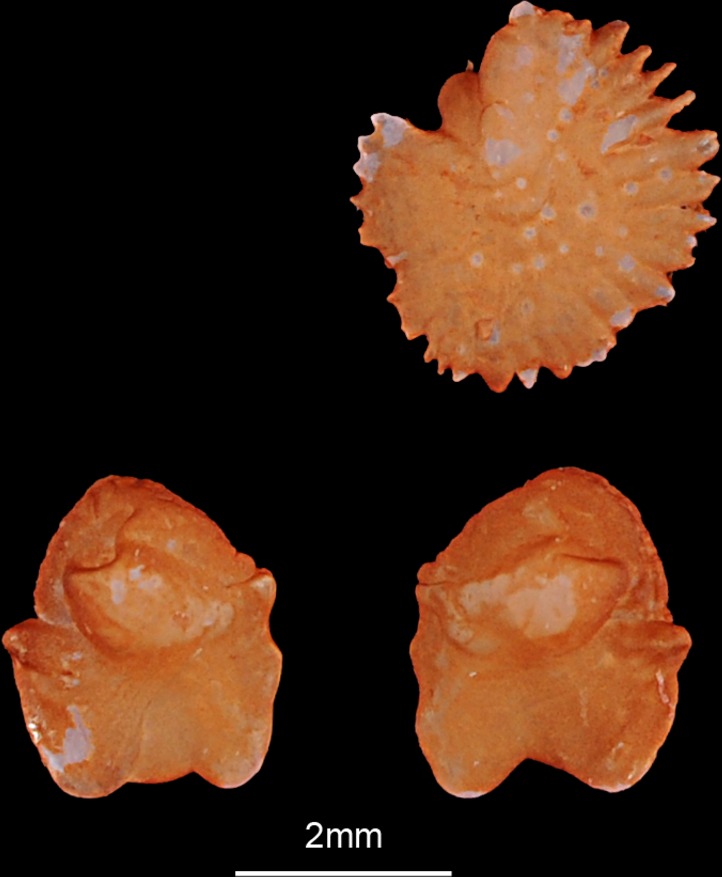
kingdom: Animalia
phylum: Chordata
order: Cypriniformes
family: Cyprinidae
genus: Scardinius
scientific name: Scardinius erythrophthalmus
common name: Rudd
